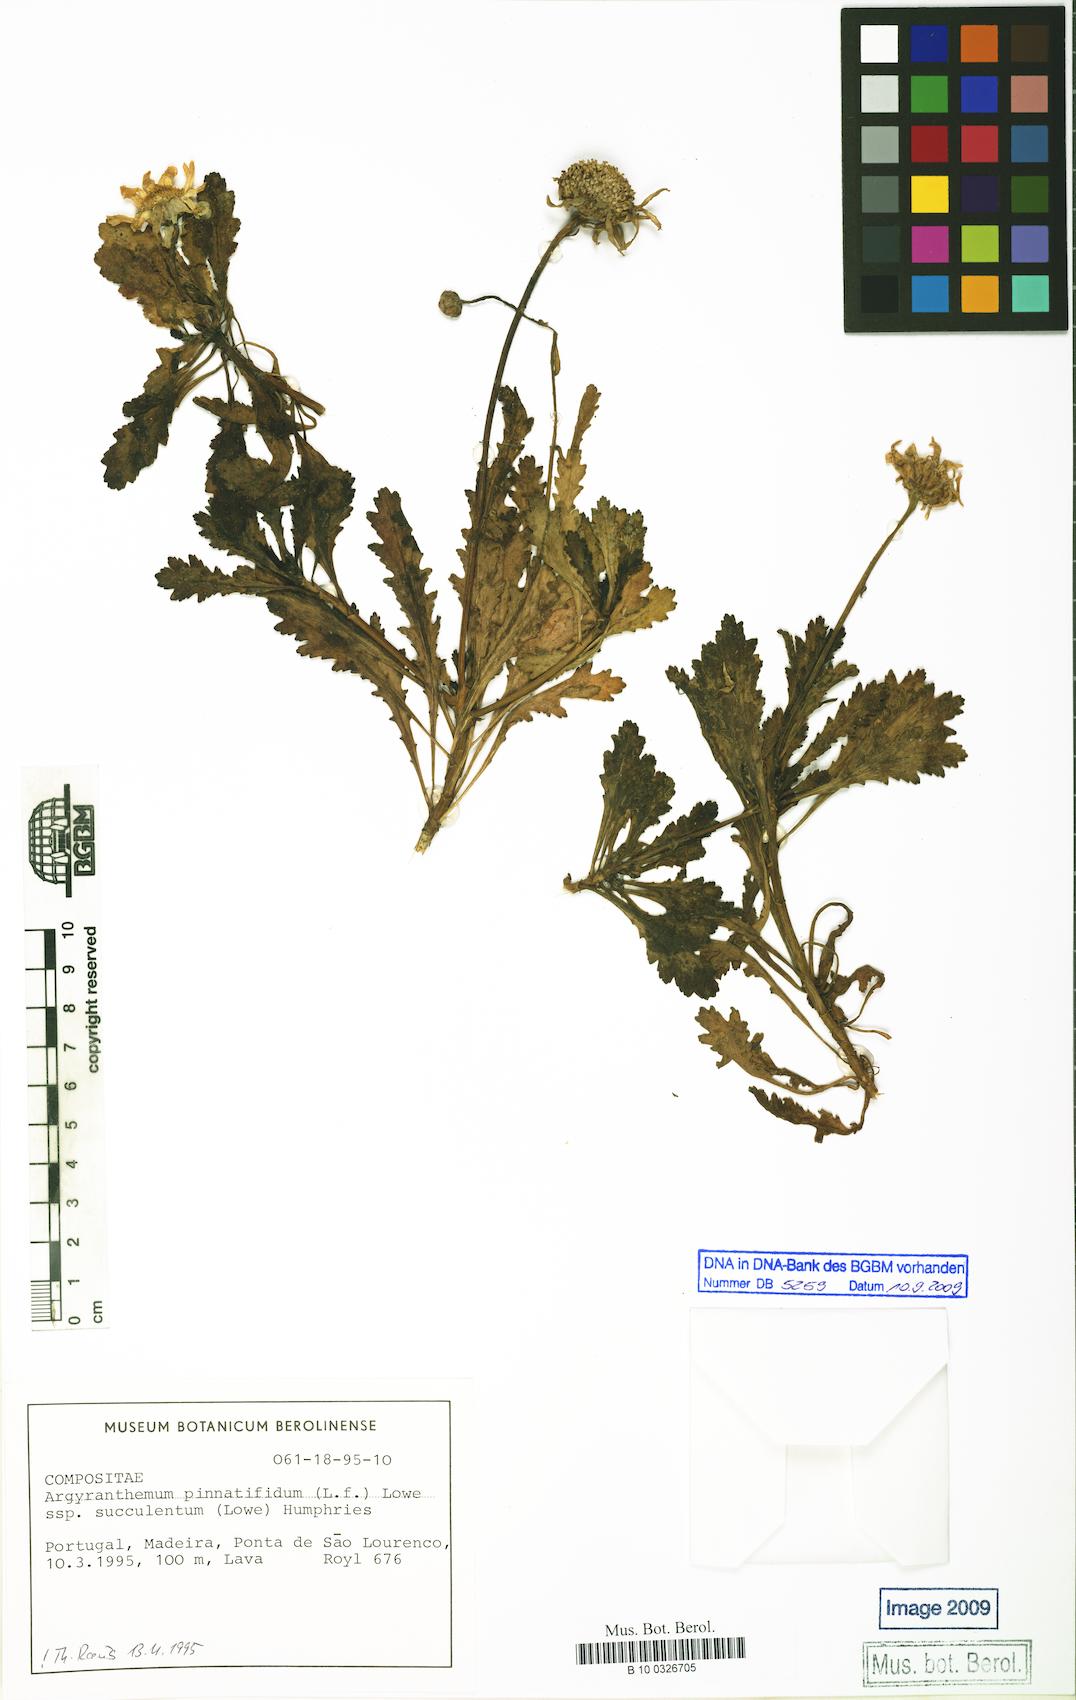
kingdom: Plantae
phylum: Tracheophyta
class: Magnoliopsida
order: Asterales
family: Asteraceae
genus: Argyranthemum
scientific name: Argyranthemum pinnatifidum
